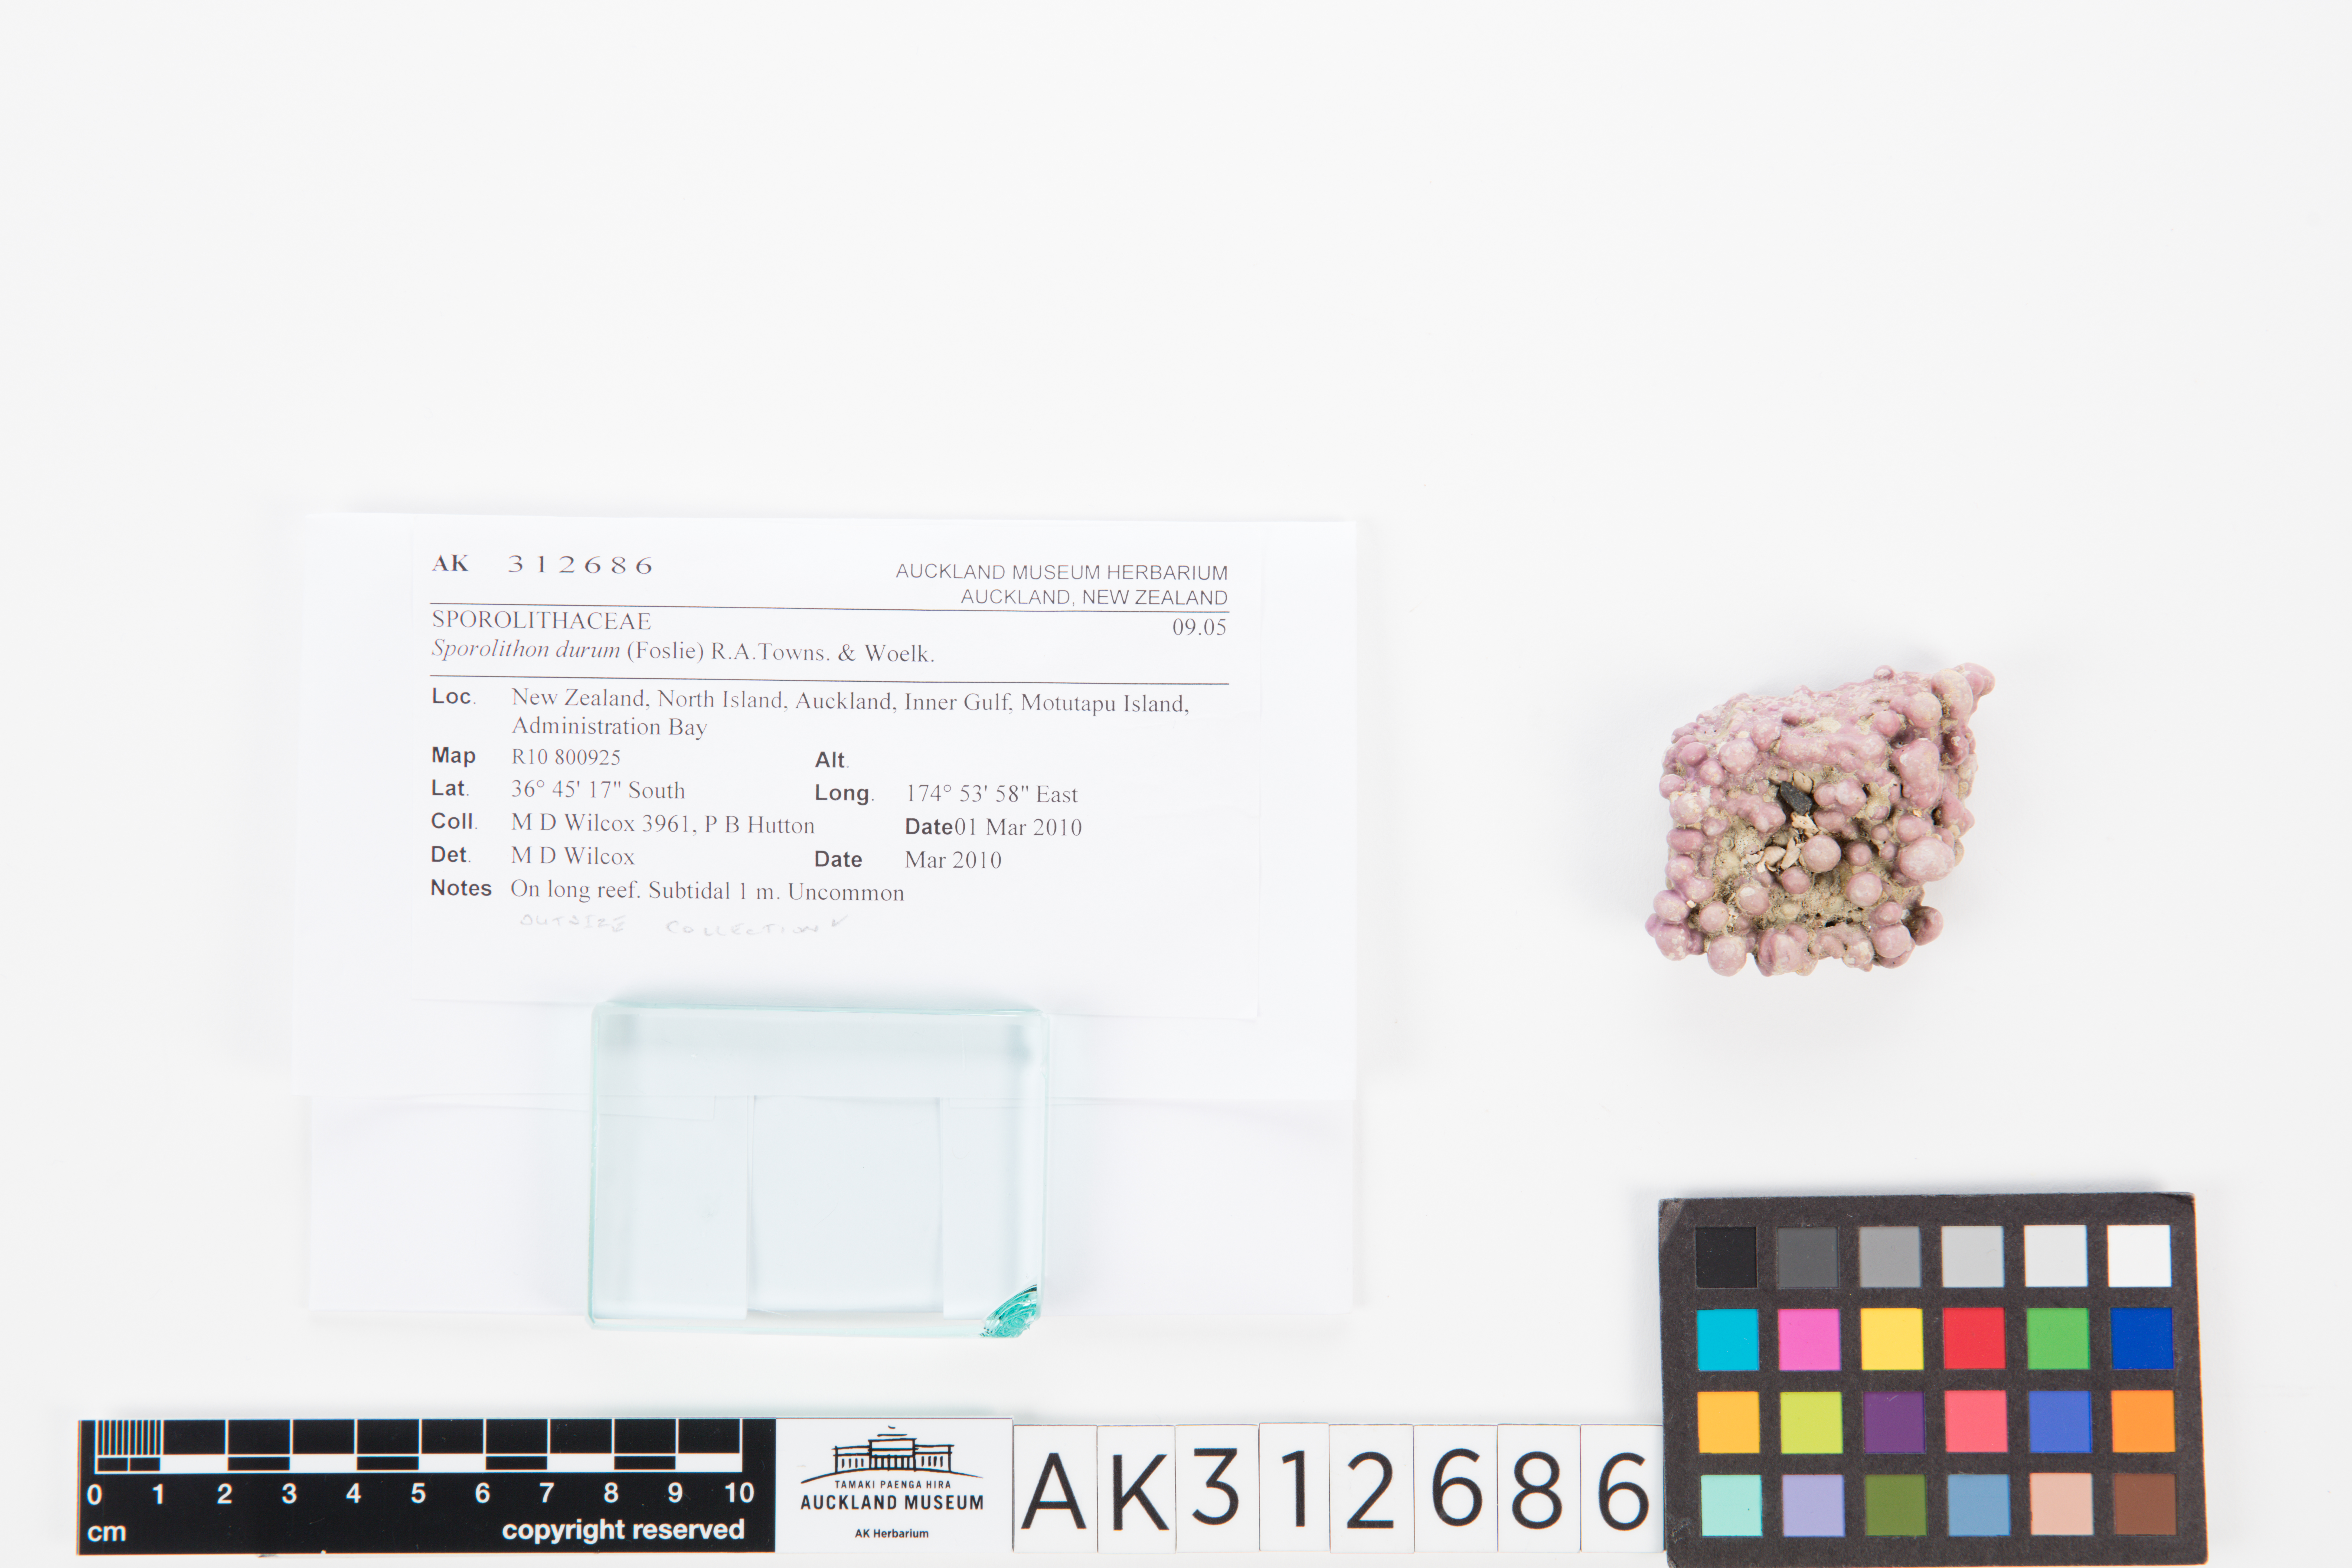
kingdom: Plantae
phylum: Rhodophyta
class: Florideophyceae
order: Corallinales
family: Sporolithaceae
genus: Sporolithon
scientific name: Sporolithon durum
